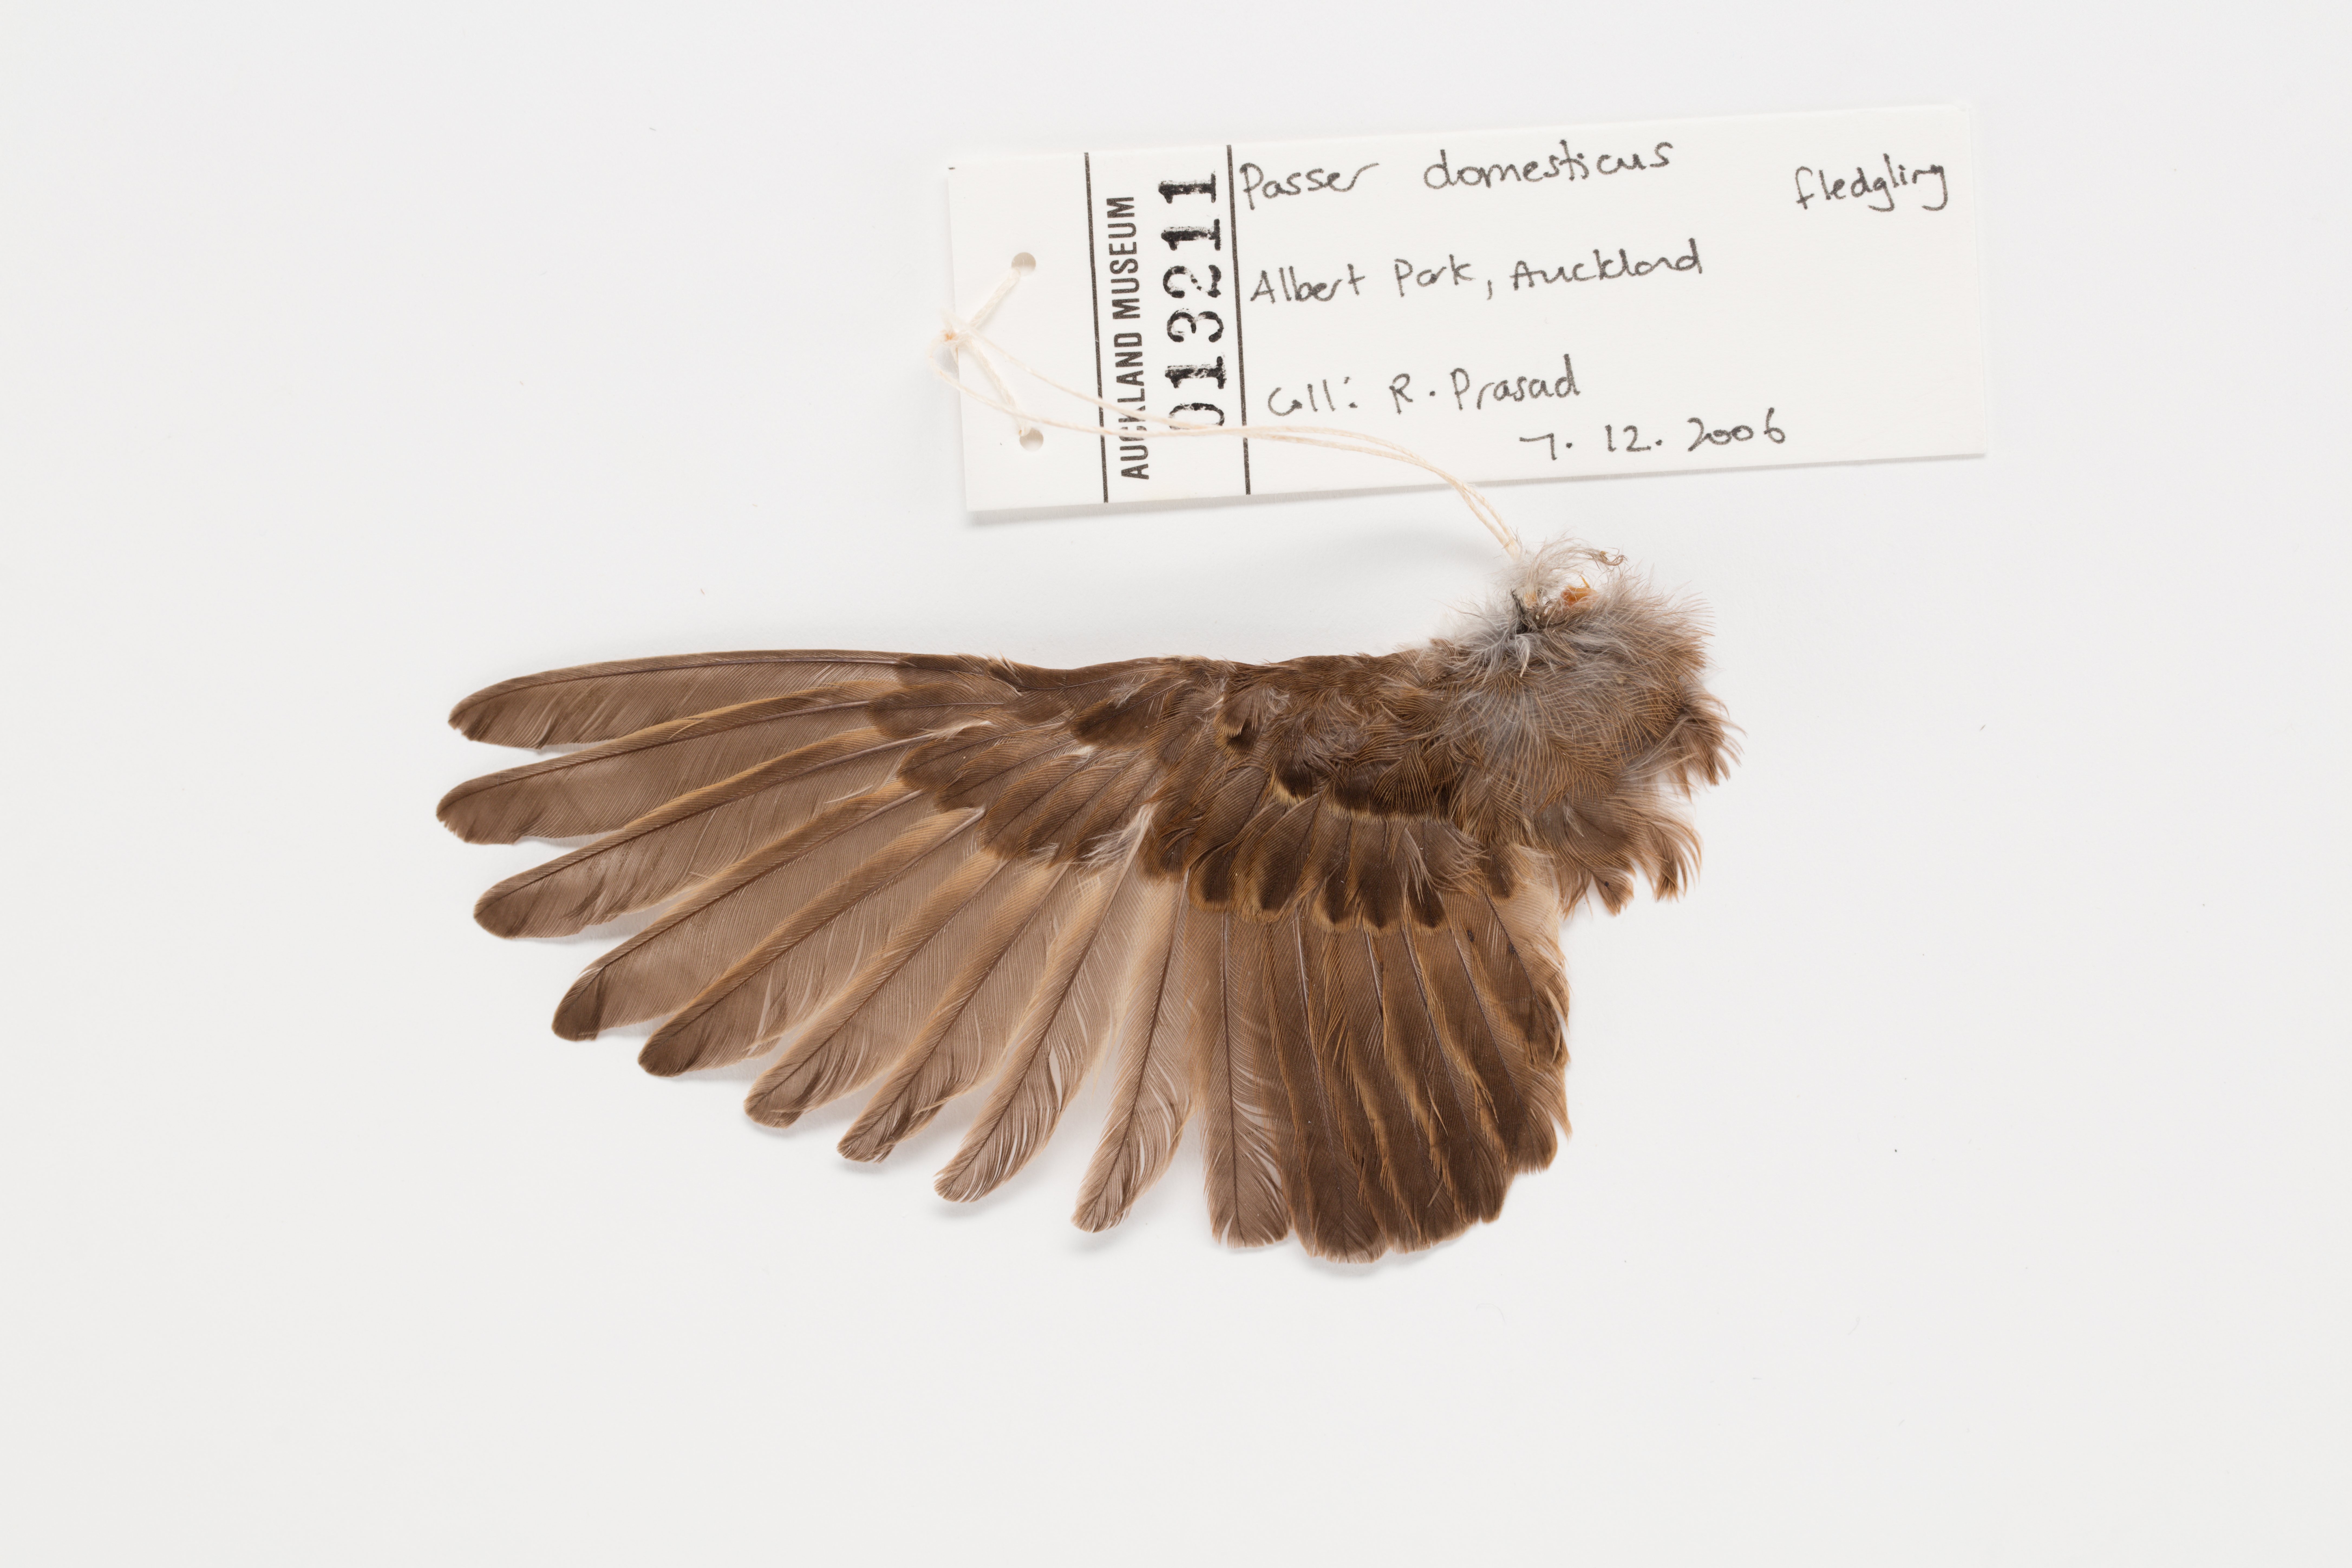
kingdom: Animalia
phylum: Chordata
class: Aves
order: Passeriformes
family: Passeridae
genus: Passer
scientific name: Passer domesticus
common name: House sparrow
